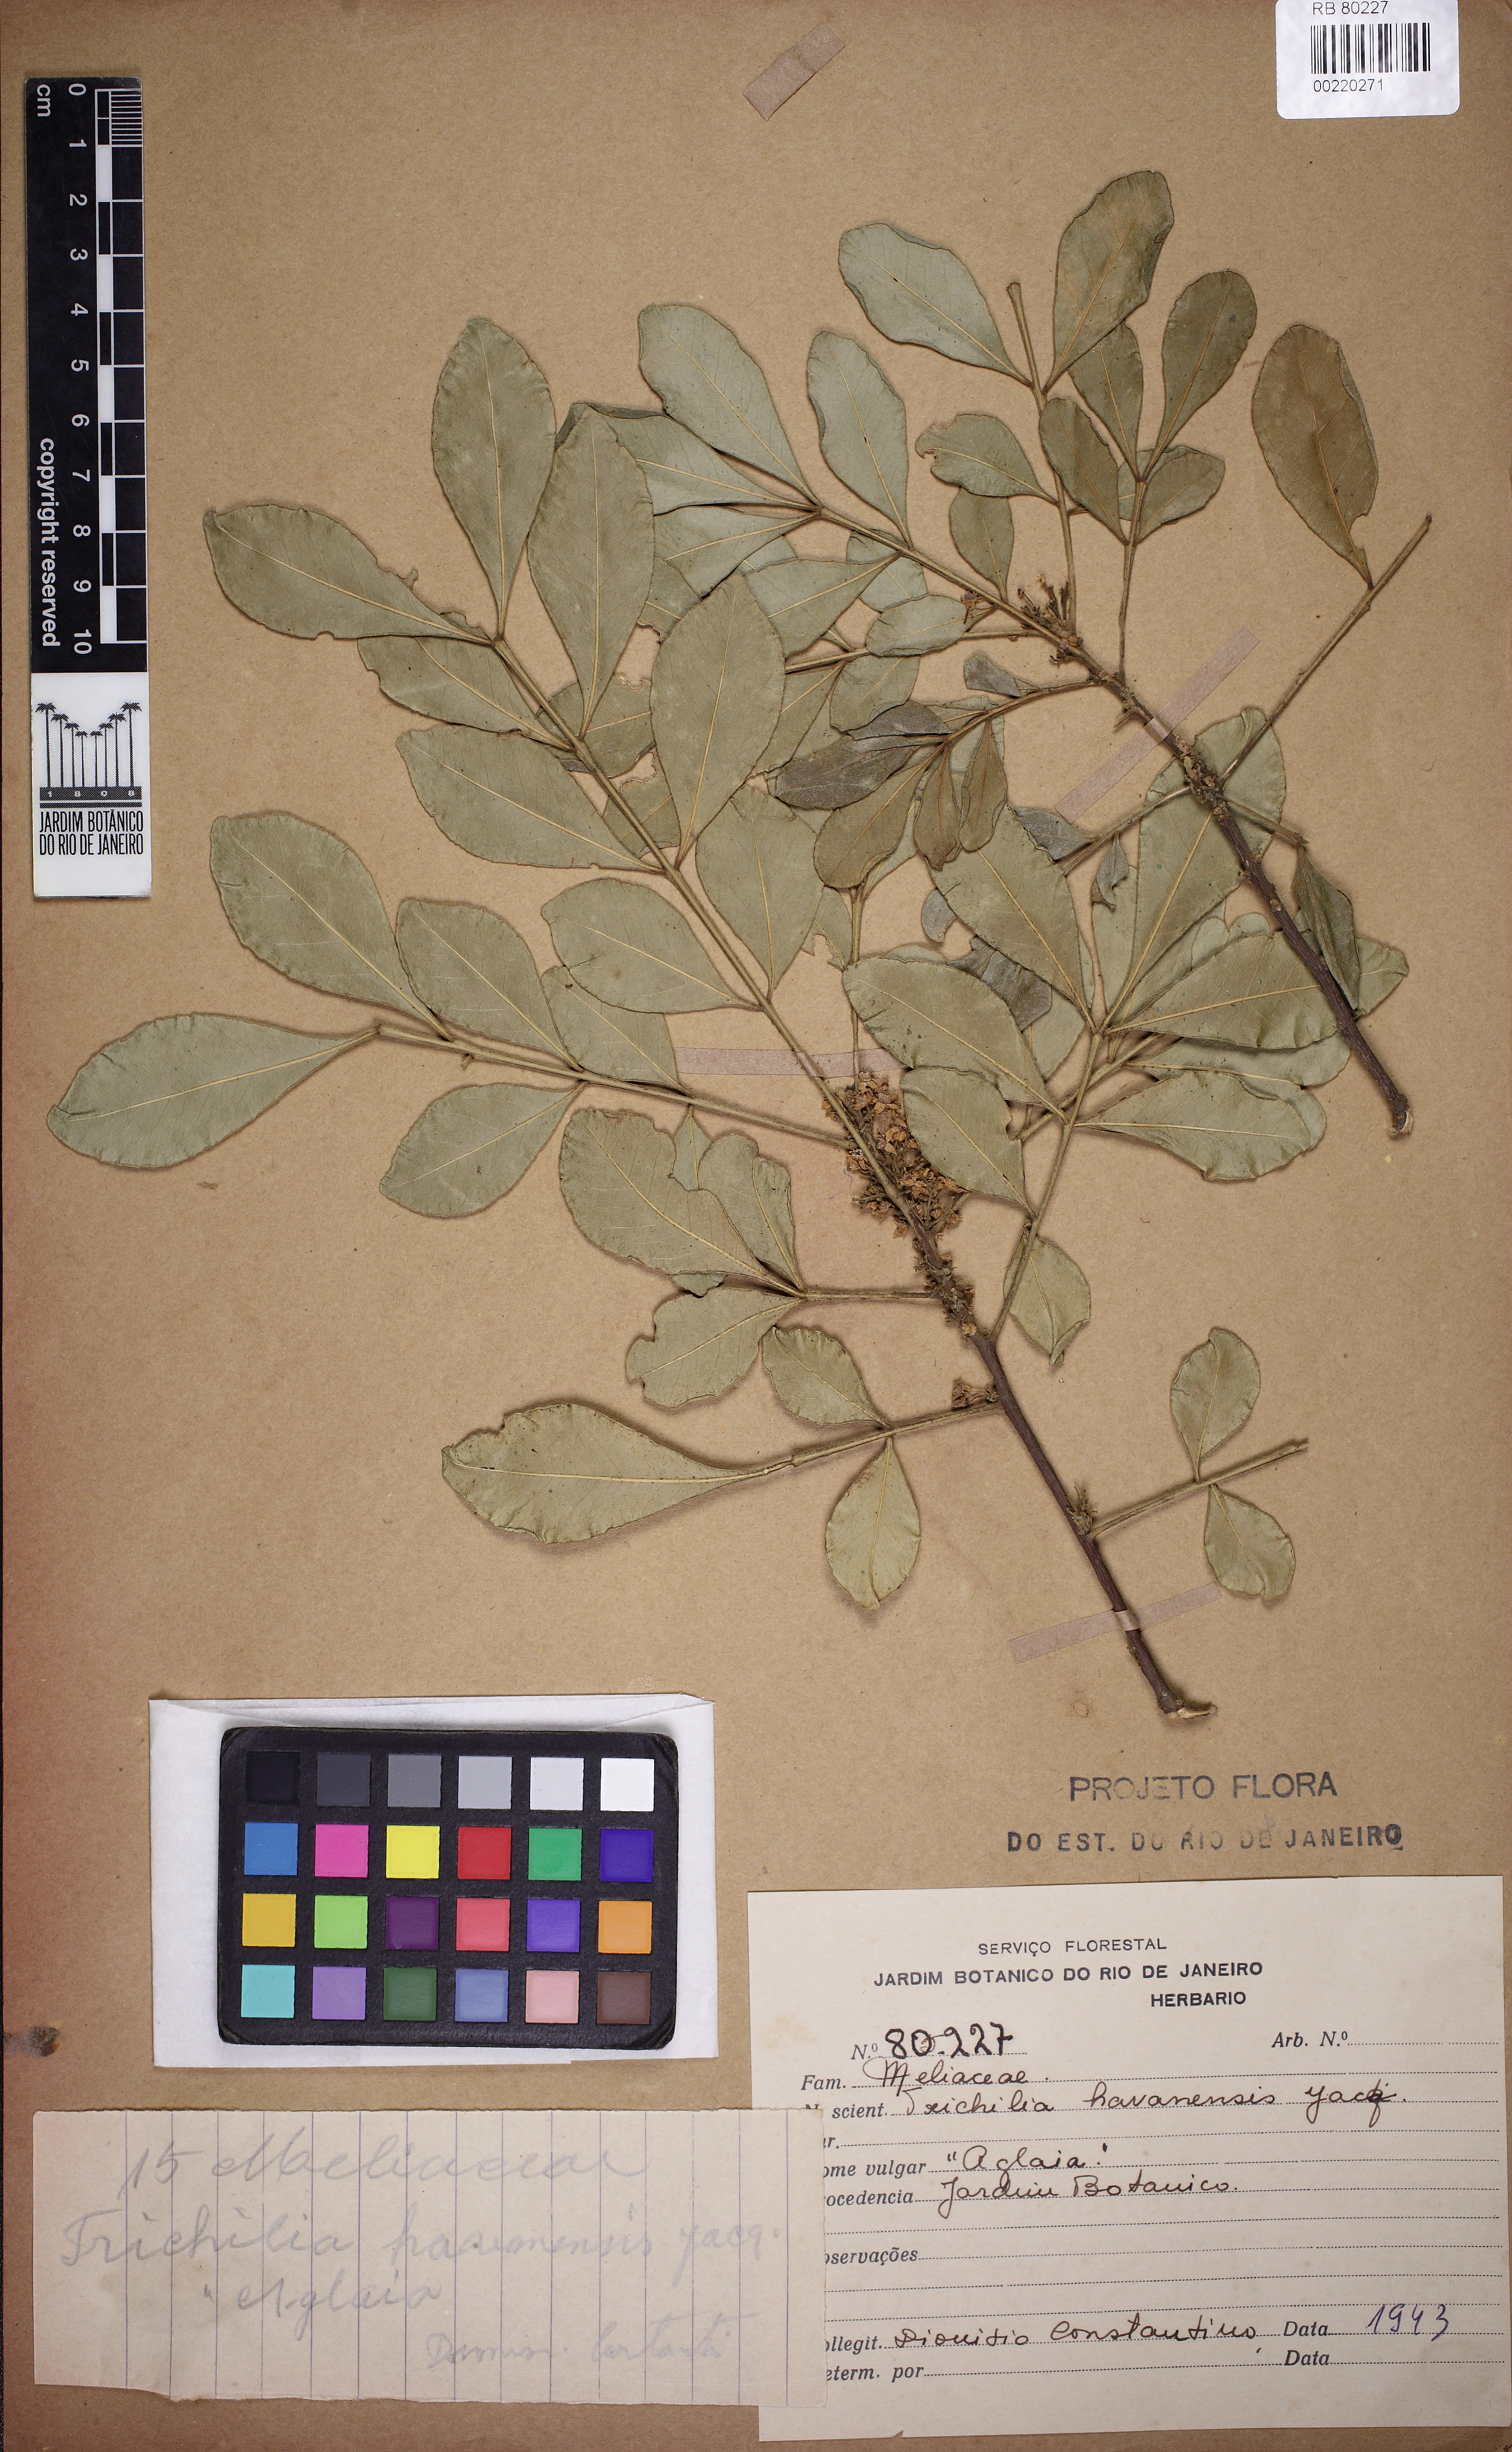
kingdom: Plantae
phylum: Tracheophyta
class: Magnoliopsida
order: Sapindales
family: Meliaceae
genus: Trichilia
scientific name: Trichilia havanensis
